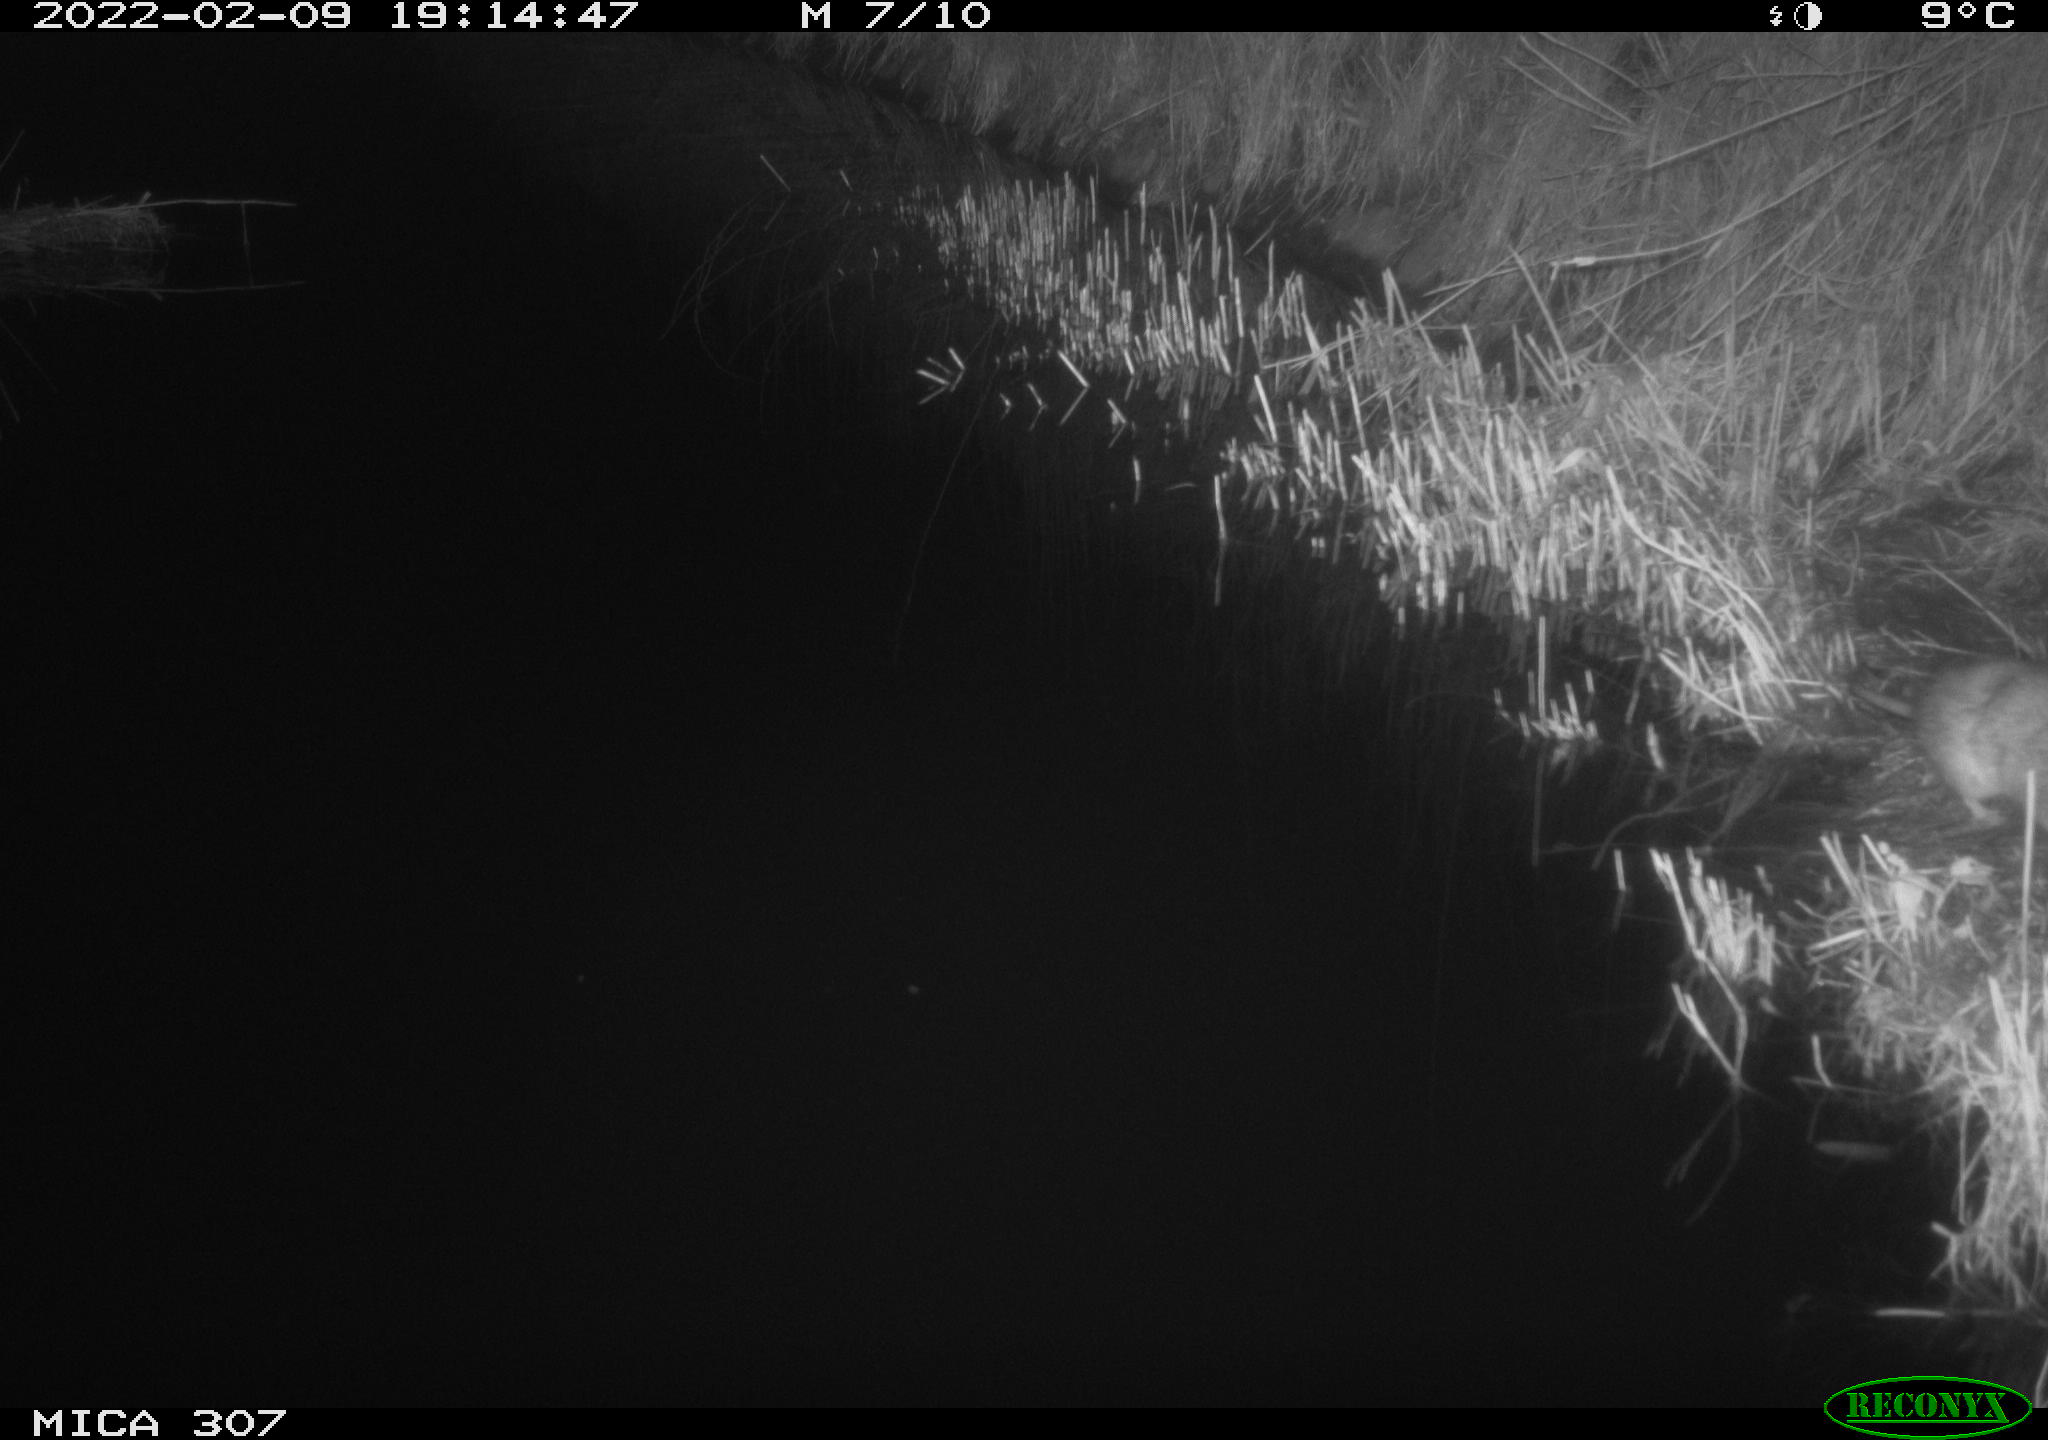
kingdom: Animalia
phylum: Chordata
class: Mammalia
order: Rodentia
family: Muridae
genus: Rattus
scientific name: Rattus norvegicus
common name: Brown rat
